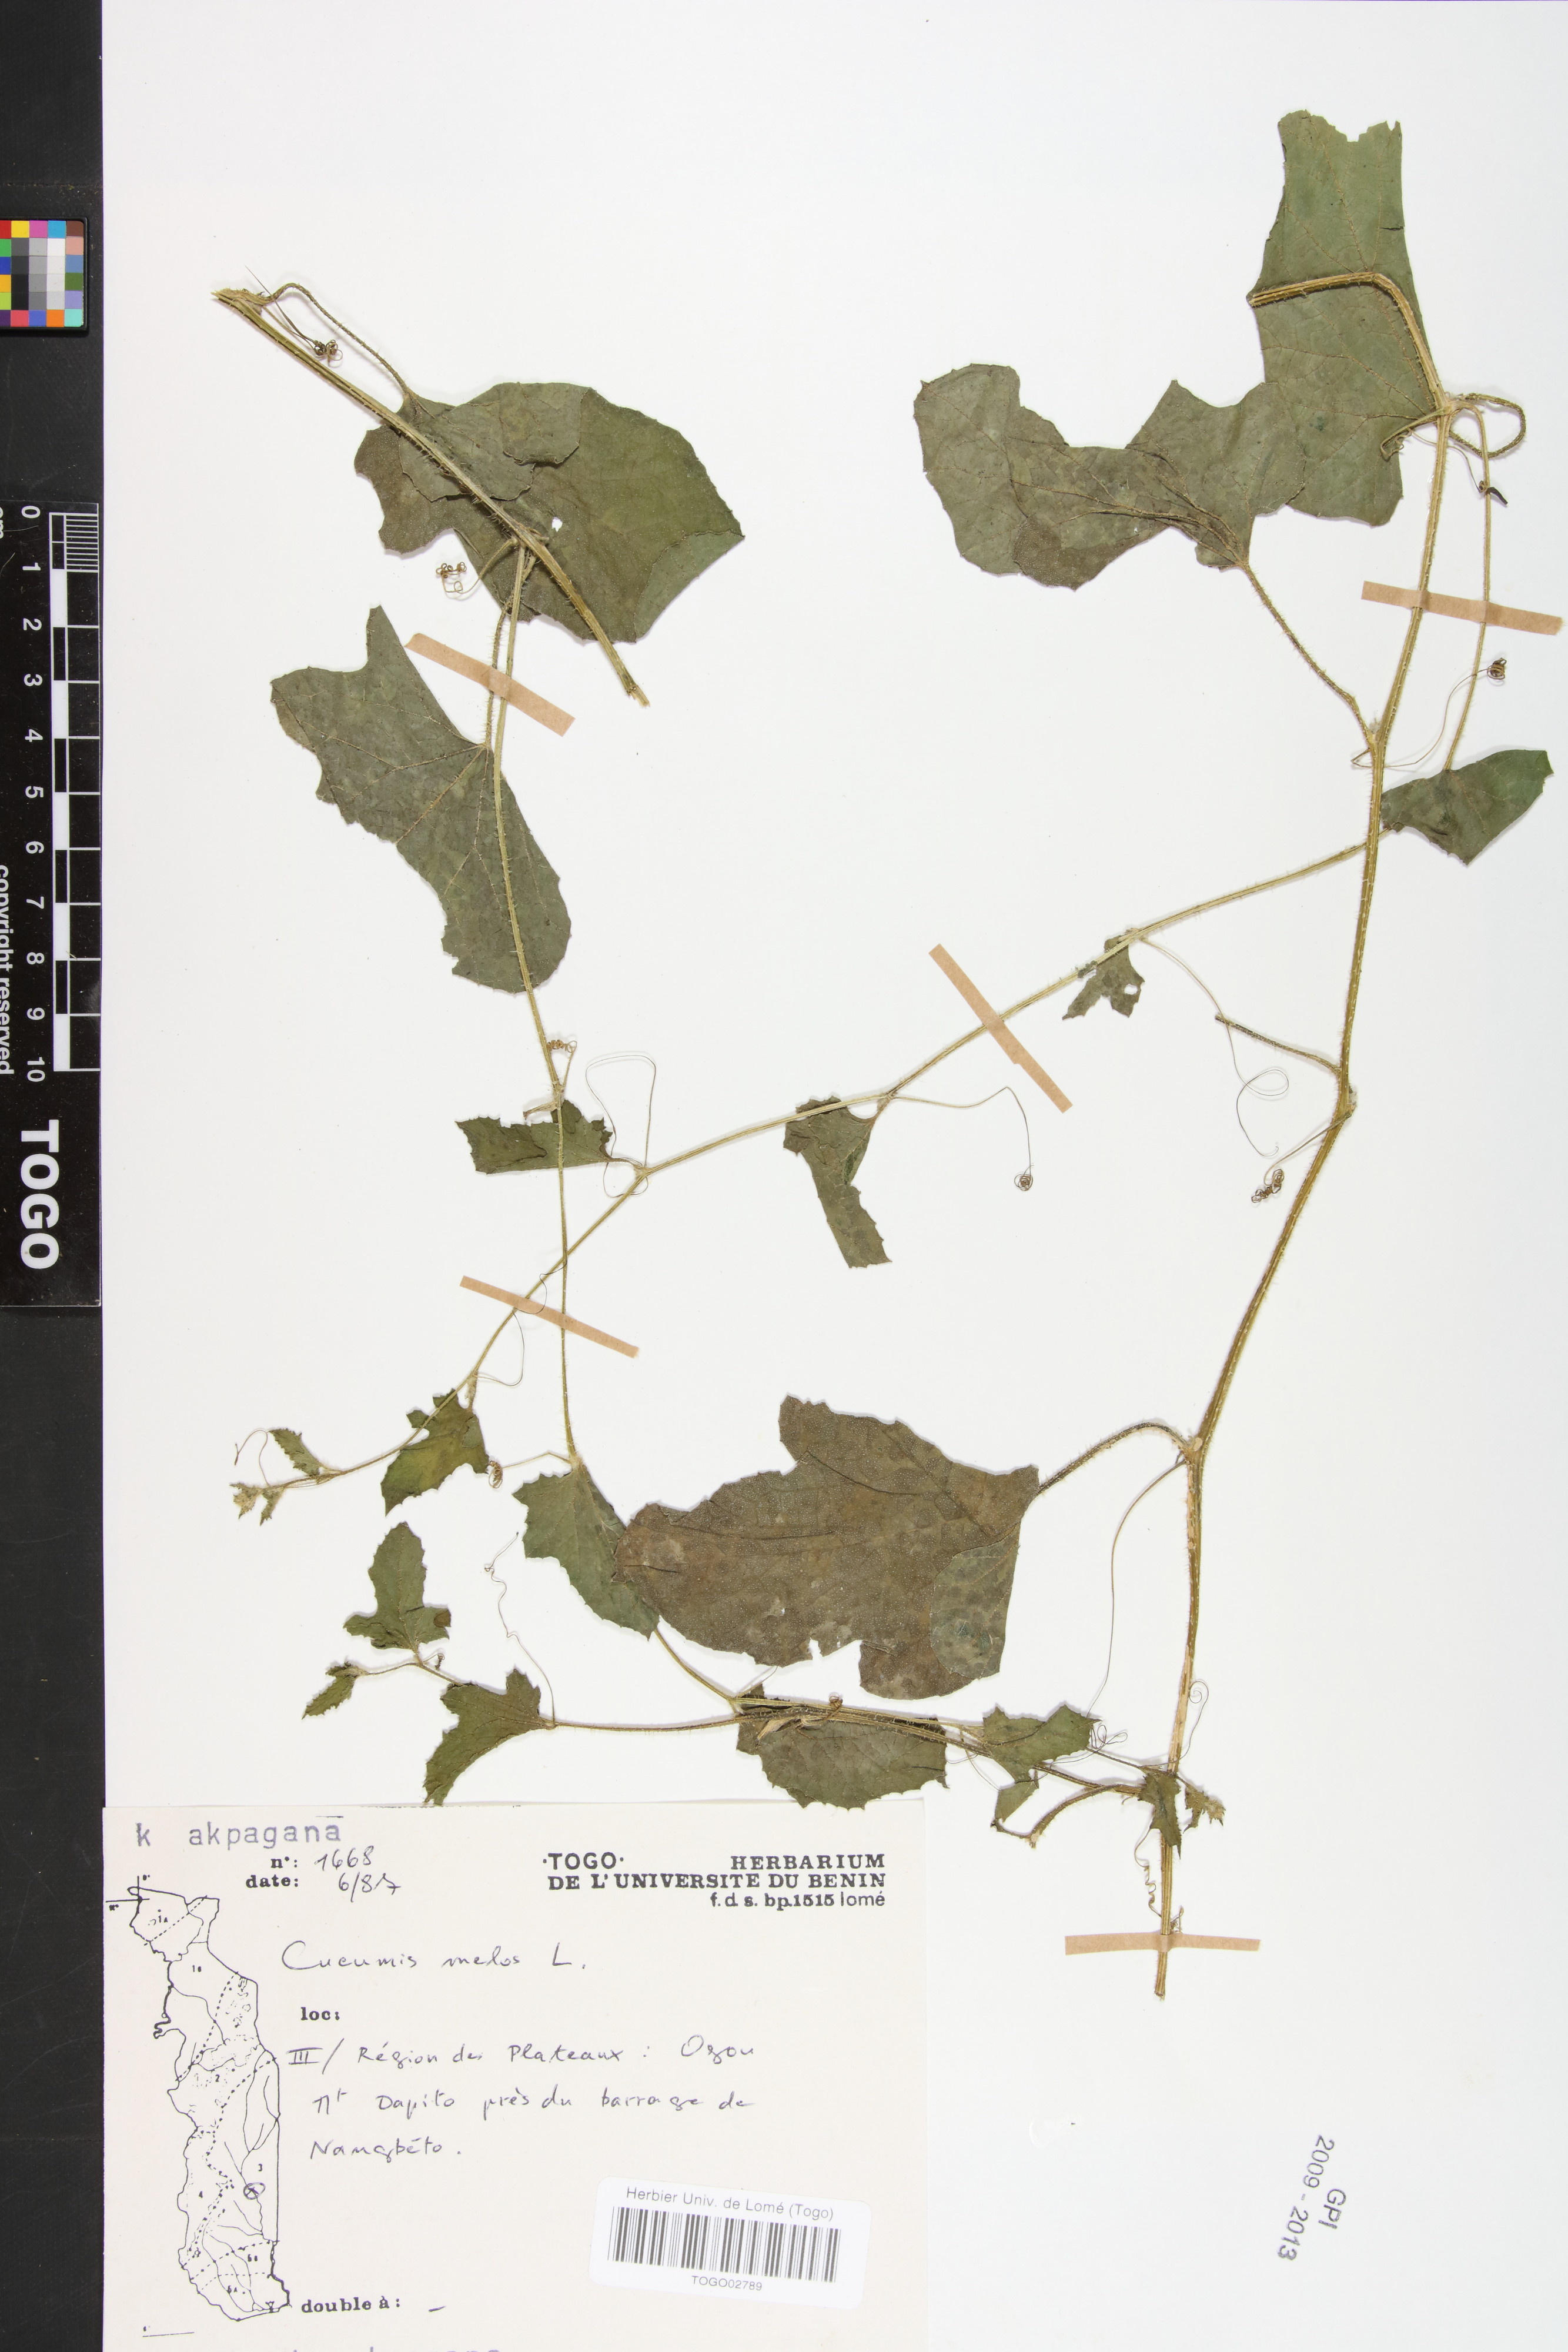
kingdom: Plantae
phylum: Tracheophyta
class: Magnoliopsida
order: Cucurbitales
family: Cucurbitaceae
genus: Cucumis
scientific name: Cucumis melo
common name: Melon
